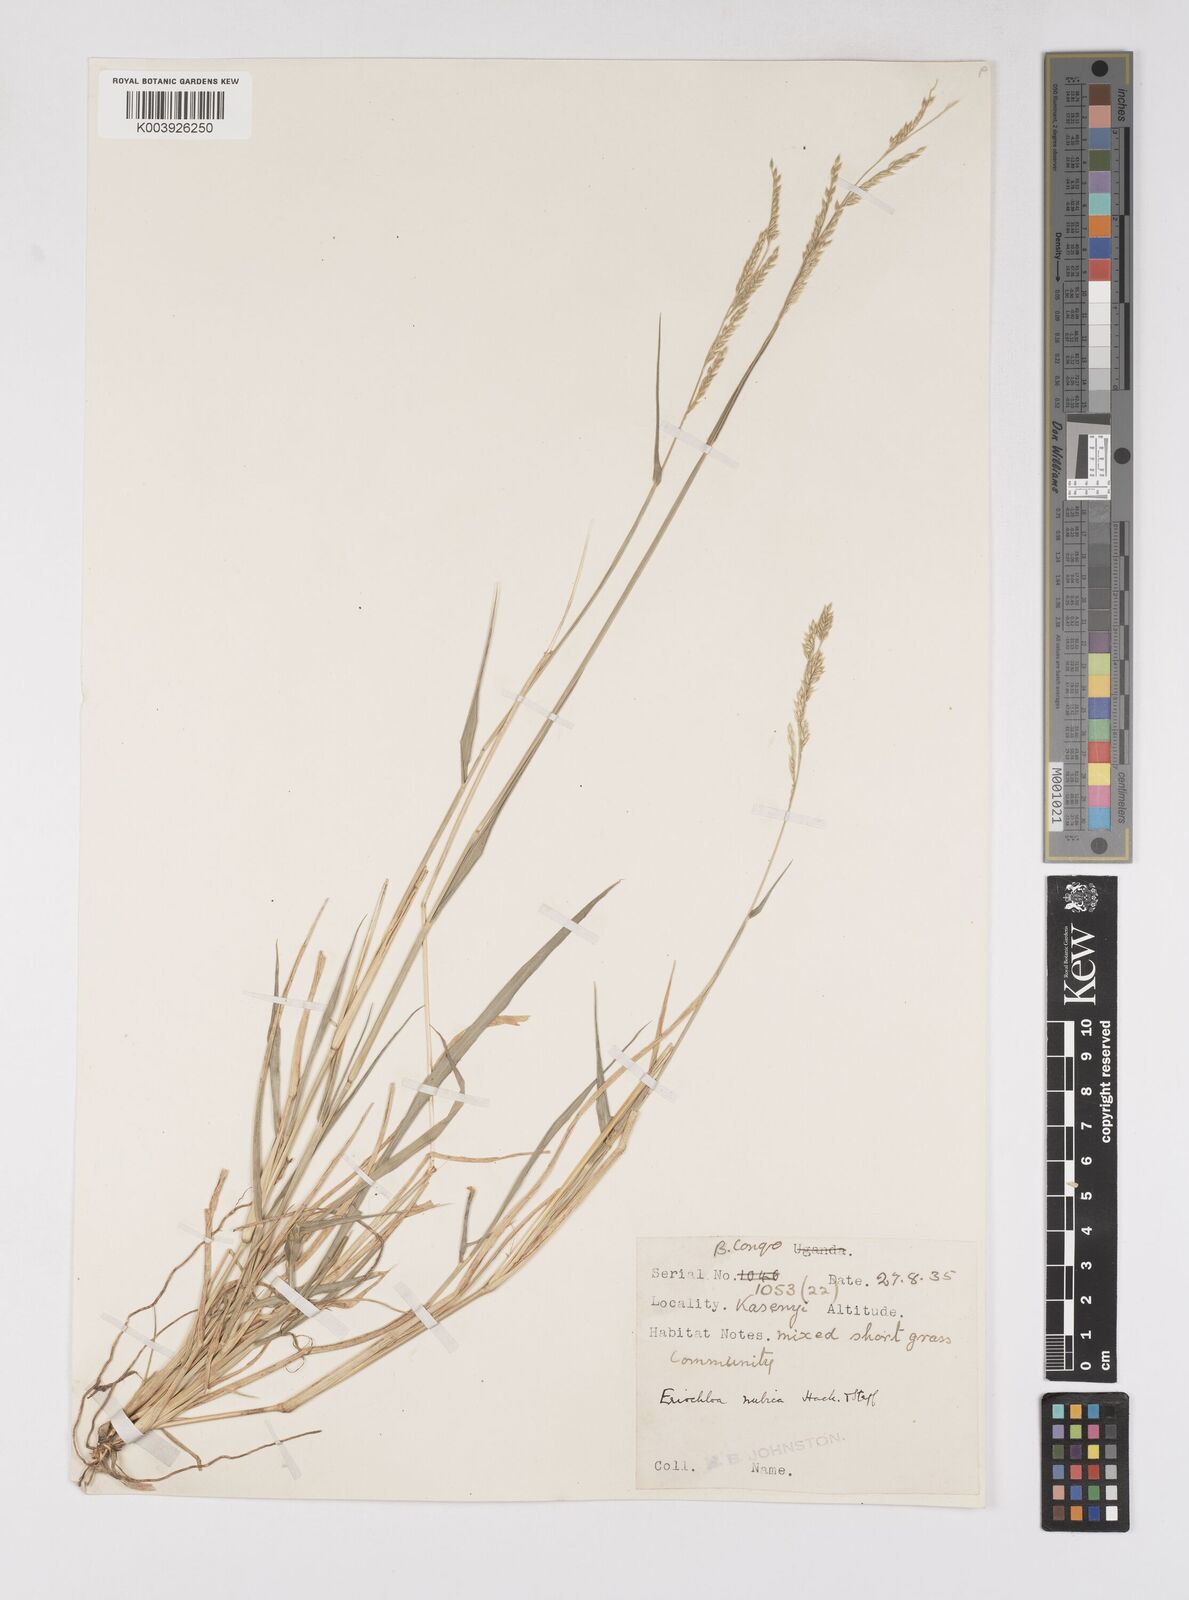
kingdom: Plantae
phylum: Tracheophyta
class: Liliopsida
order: Poales
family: Poaceae
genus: Eriochloa
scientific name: Eriochloa barbatus
